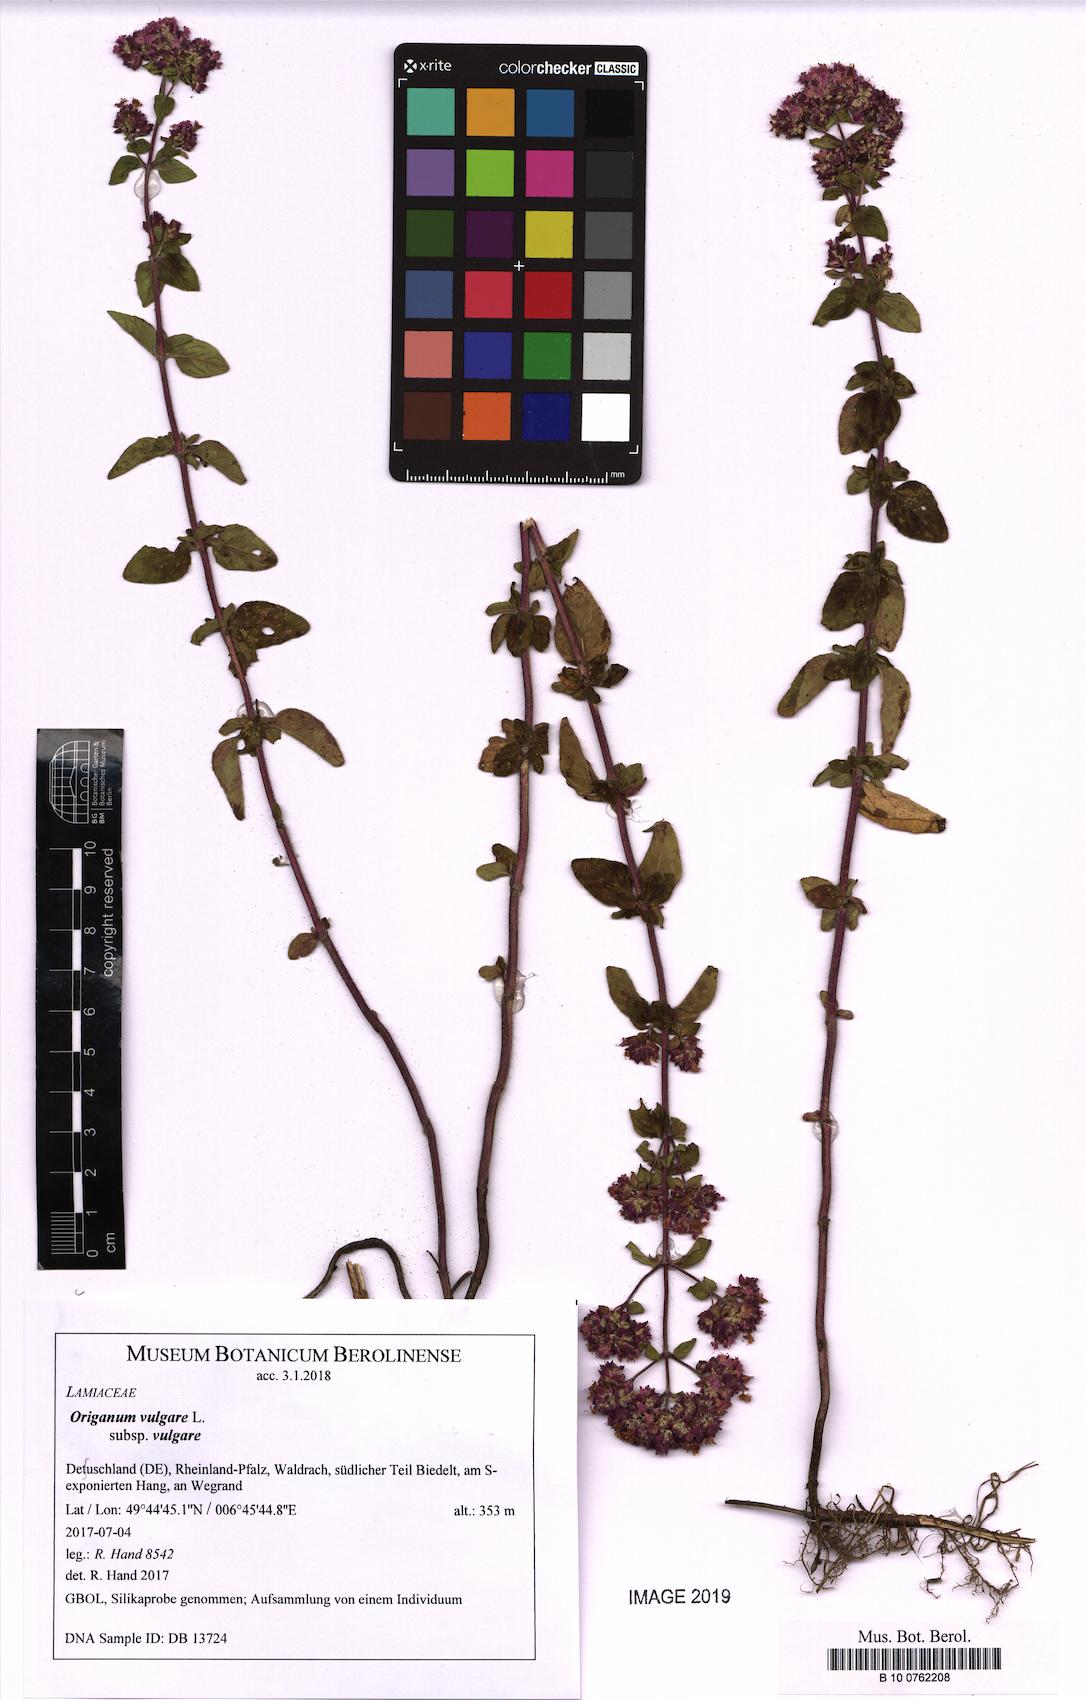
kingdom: Plantae
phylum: Tracheophyta
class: Magnoliopsida
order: Lamiales
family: Lamiaceae
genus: Origanum
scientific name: Origanum vulgare
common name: Wild marjoram
